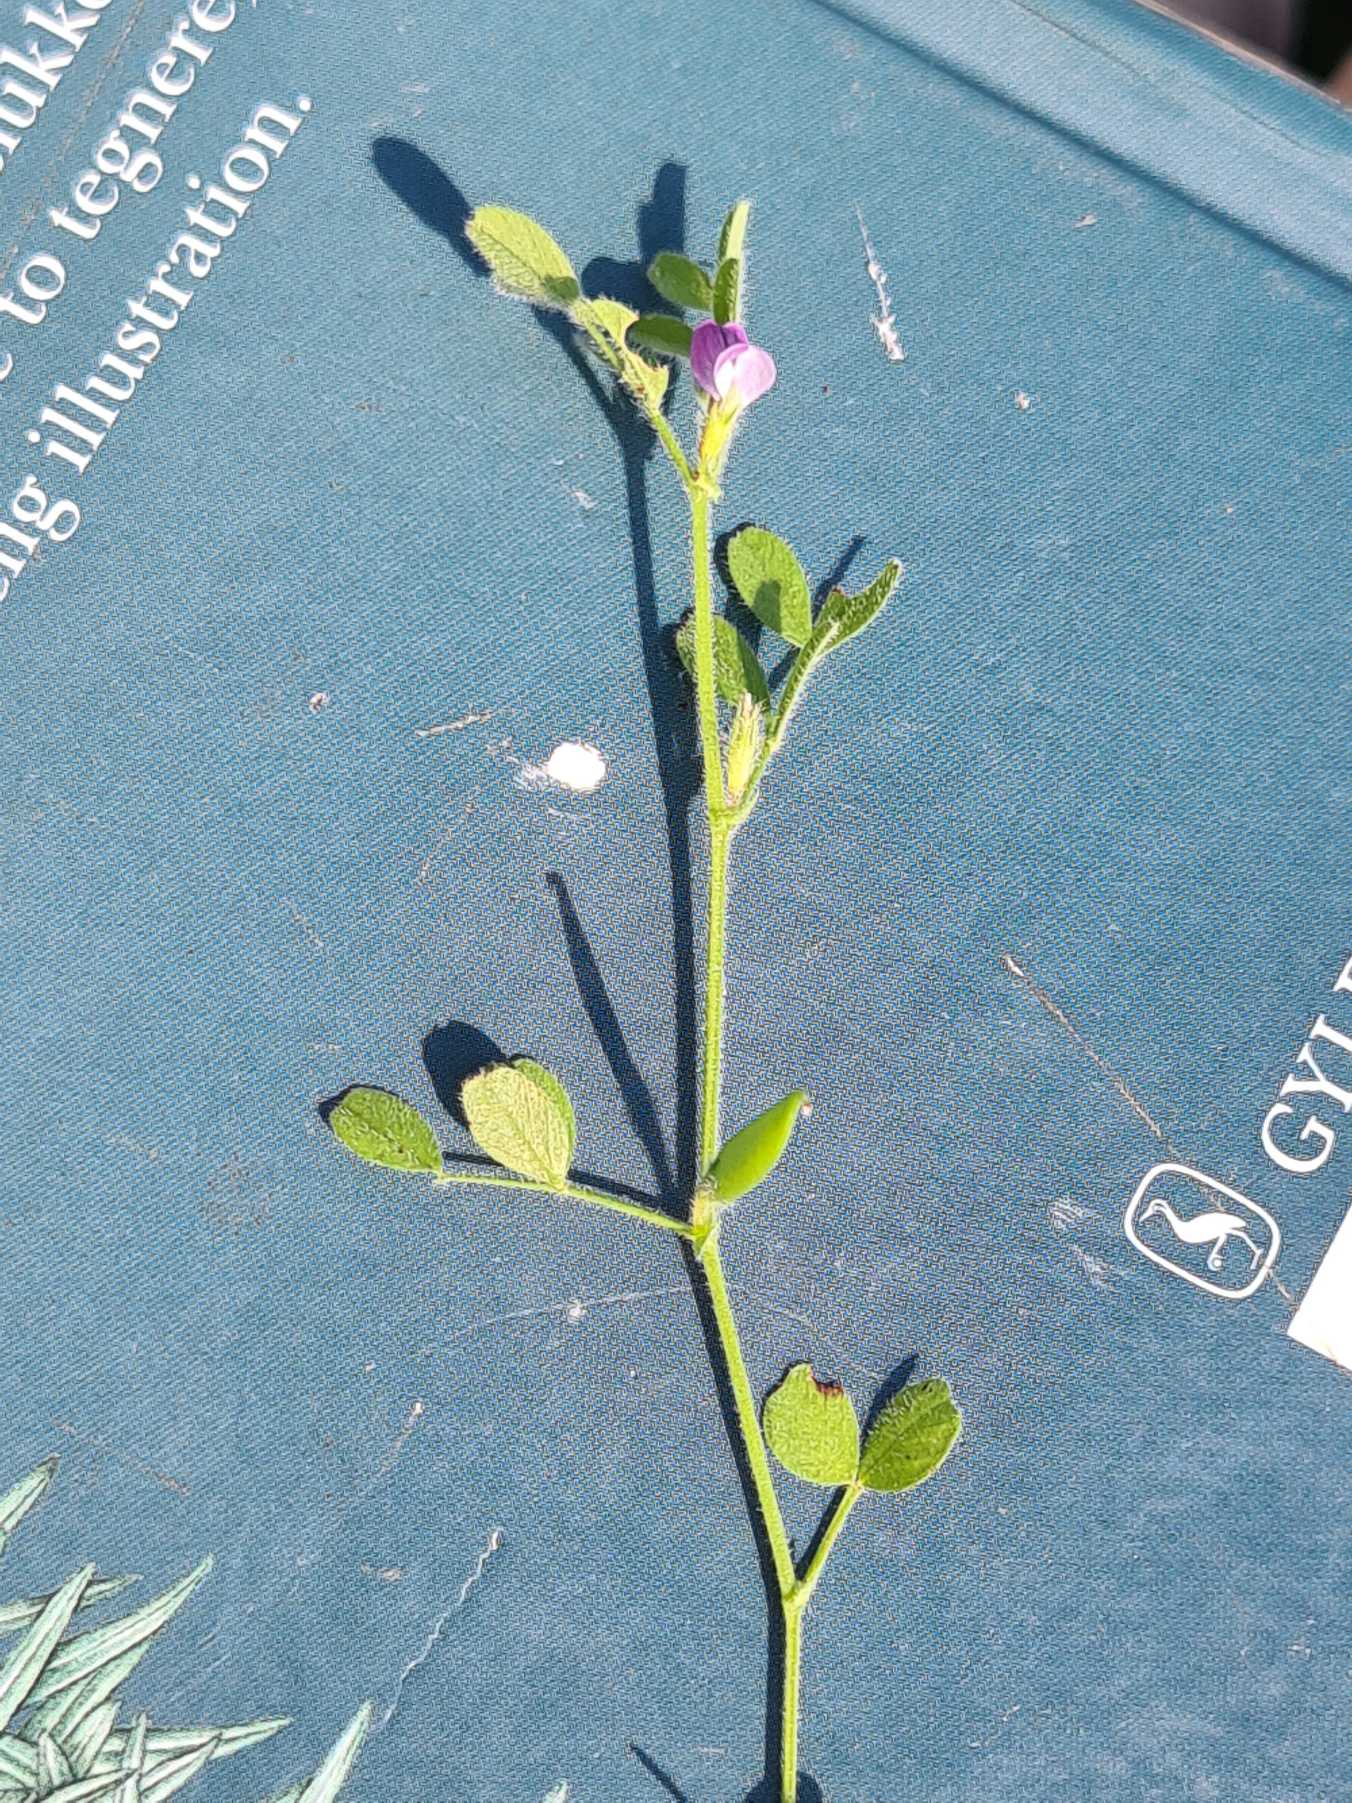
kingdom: Plantae
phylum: Tracheophyta
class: Magnoliopsida
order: Fabales
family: Fabaceae
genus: Vicia
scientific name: Vicia lathyroides
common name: Vår-vikke
